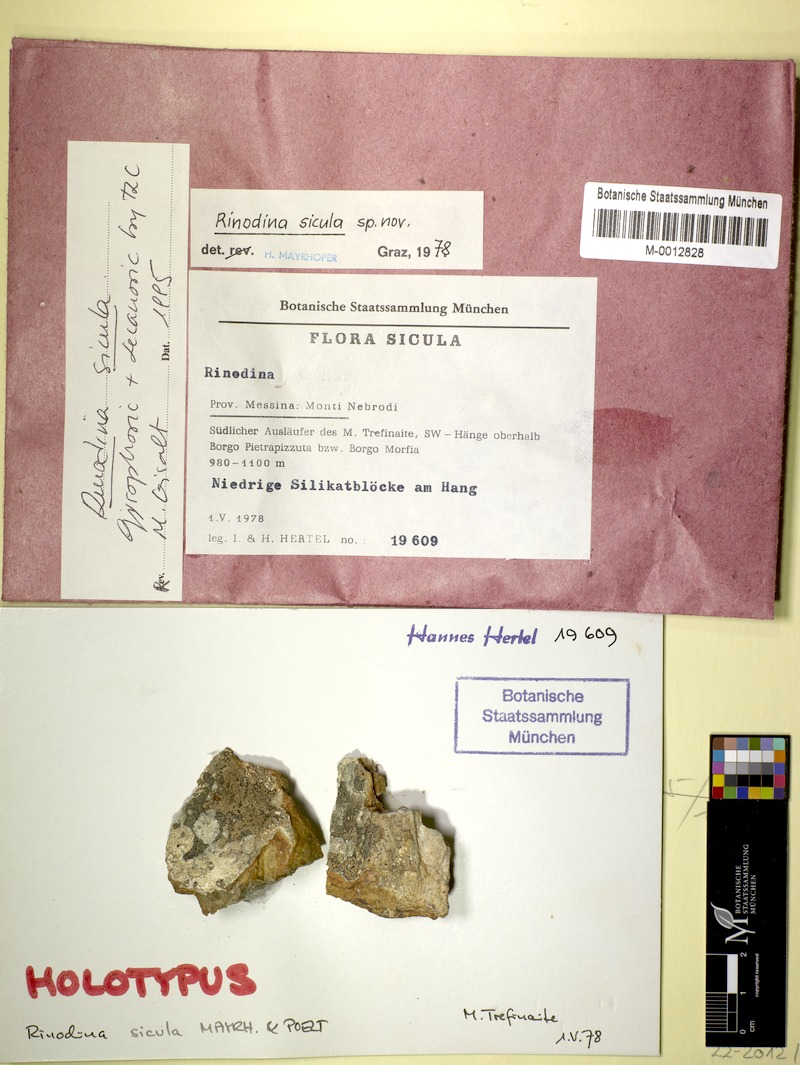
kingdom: Fungi
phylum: Ascomycota
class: Lecanoromycetes
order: Caliciales
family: Physciaceae
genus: Rinodina
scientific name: Rinodina sicula
